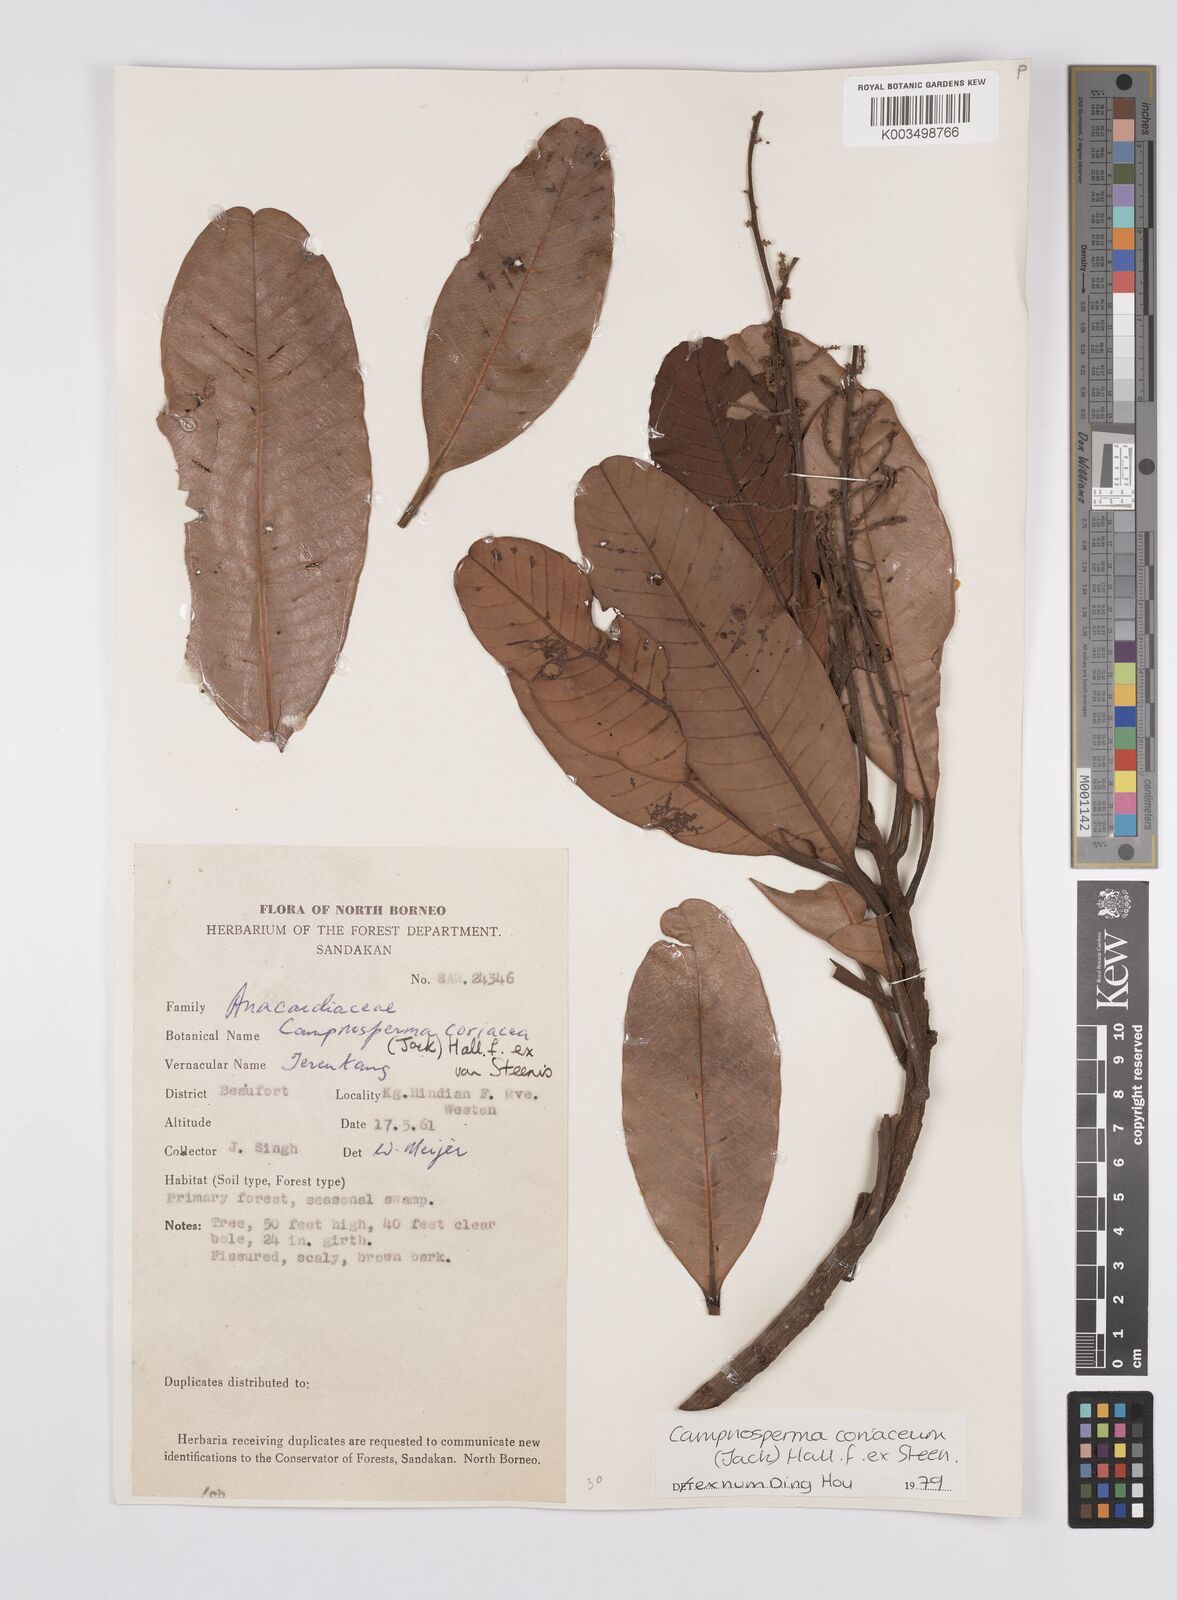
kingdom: Plantae
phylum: Tracheophyta
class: Magnoliopsida
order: Sapindales
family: Anacardiaceae
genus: Campnosperma
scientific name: Campnosperma coriaceum
